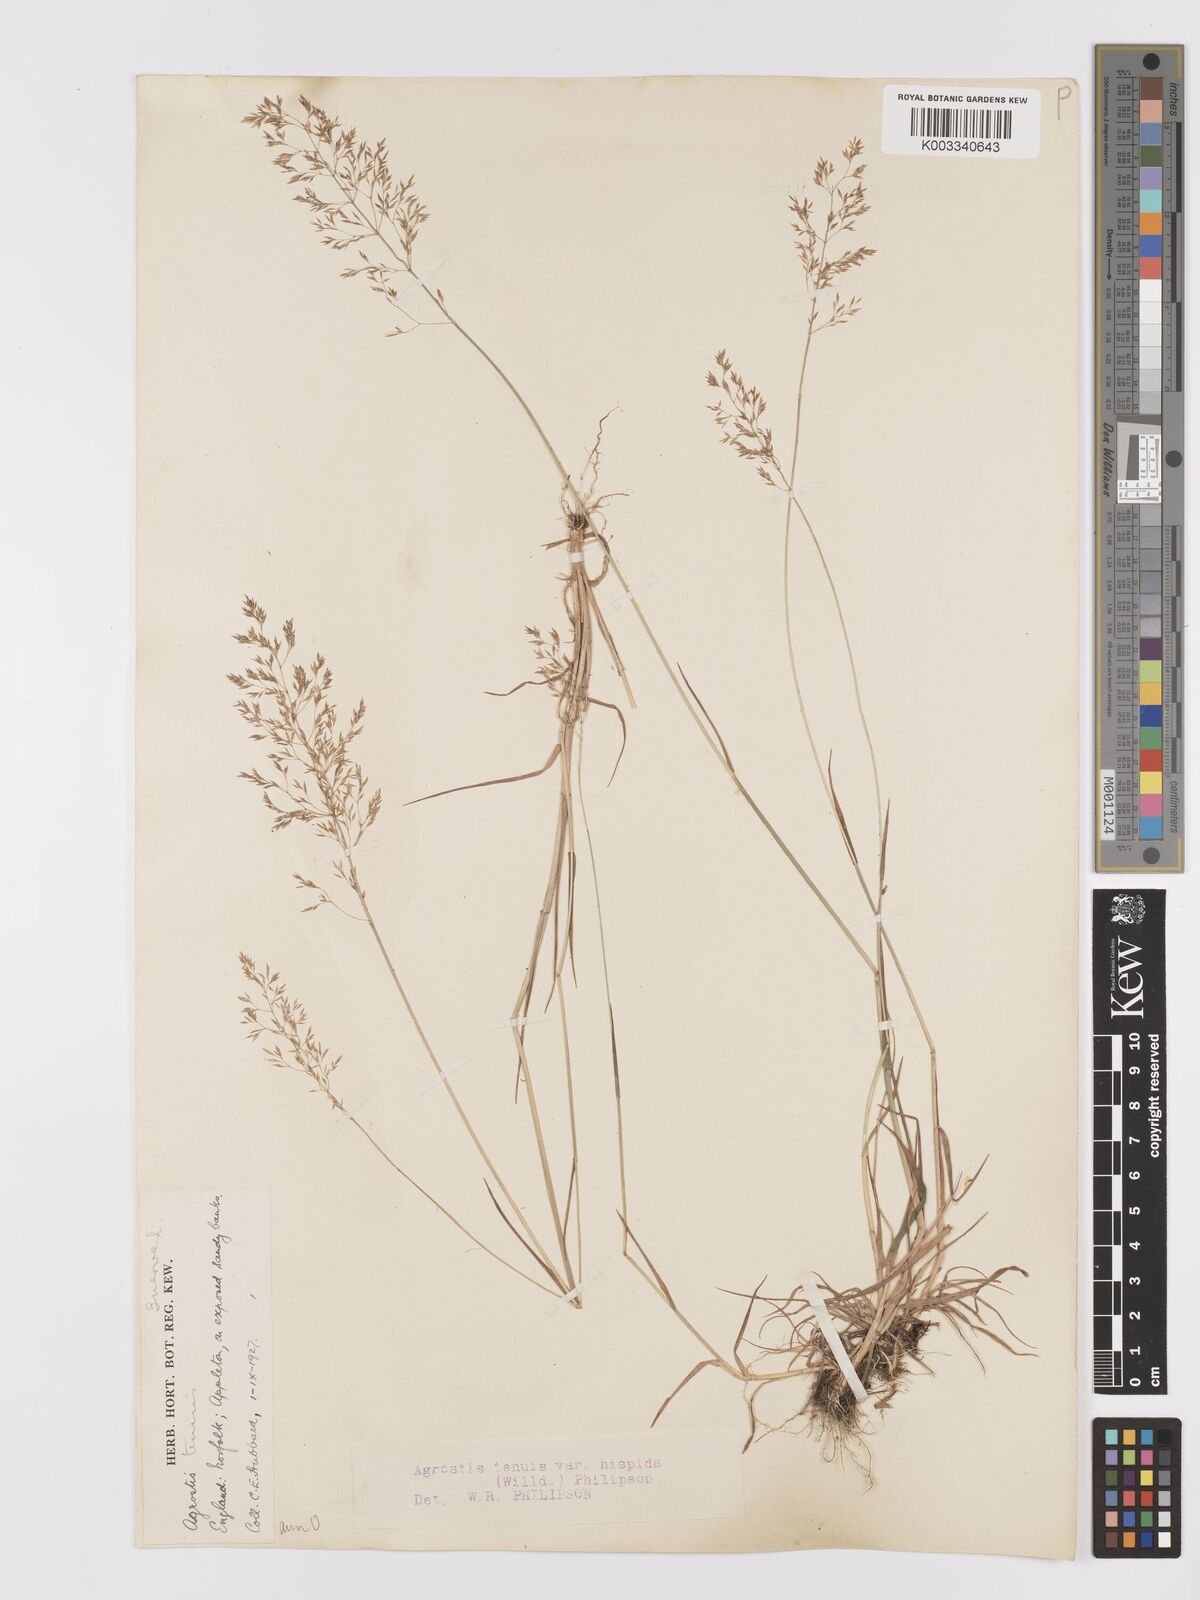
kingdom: Plantae
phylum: Tracheophyta
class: Liliopsida
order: Poales
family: Poaceae
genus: Agrostis
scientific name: Agrostis capillaris
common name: Colonial bentgrass
